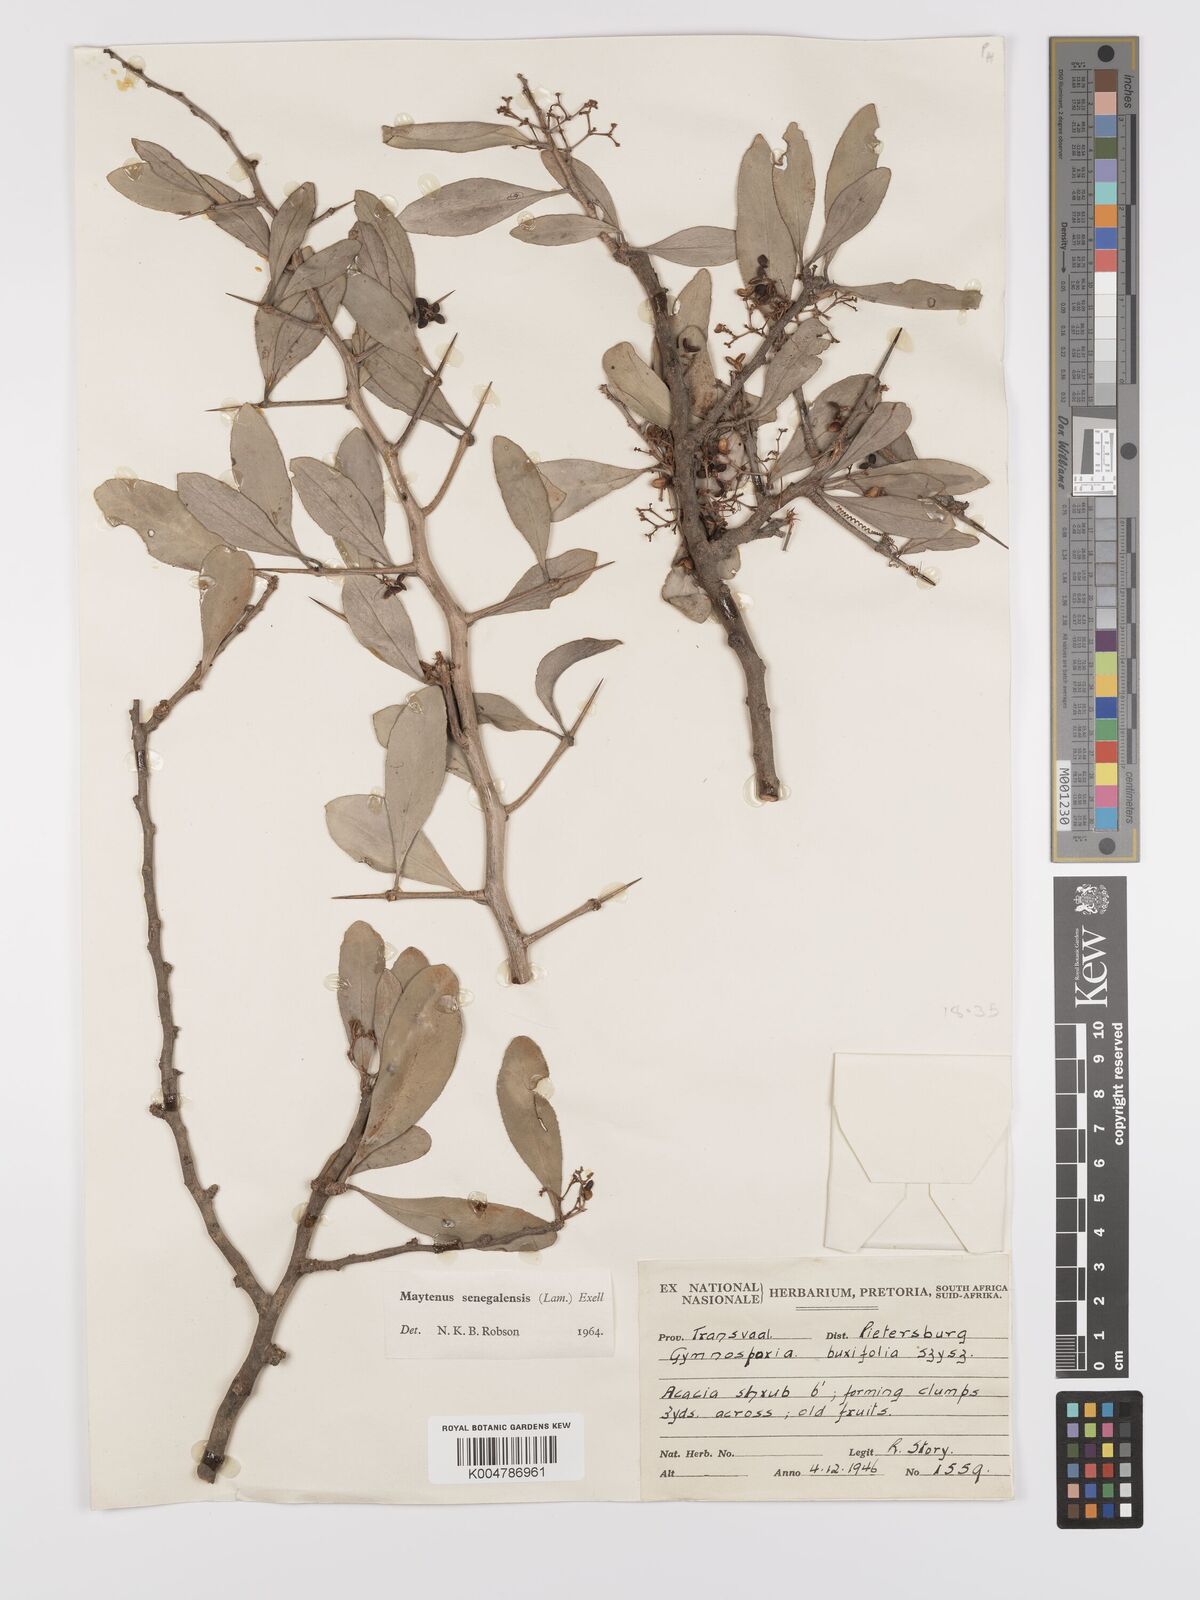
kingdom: Plantae
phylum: Tracheophyta
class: Magnoliopsida
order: Celastrales
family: Celastraceae
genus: Gymnosporia
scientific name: Gymnosporia senegalensis
